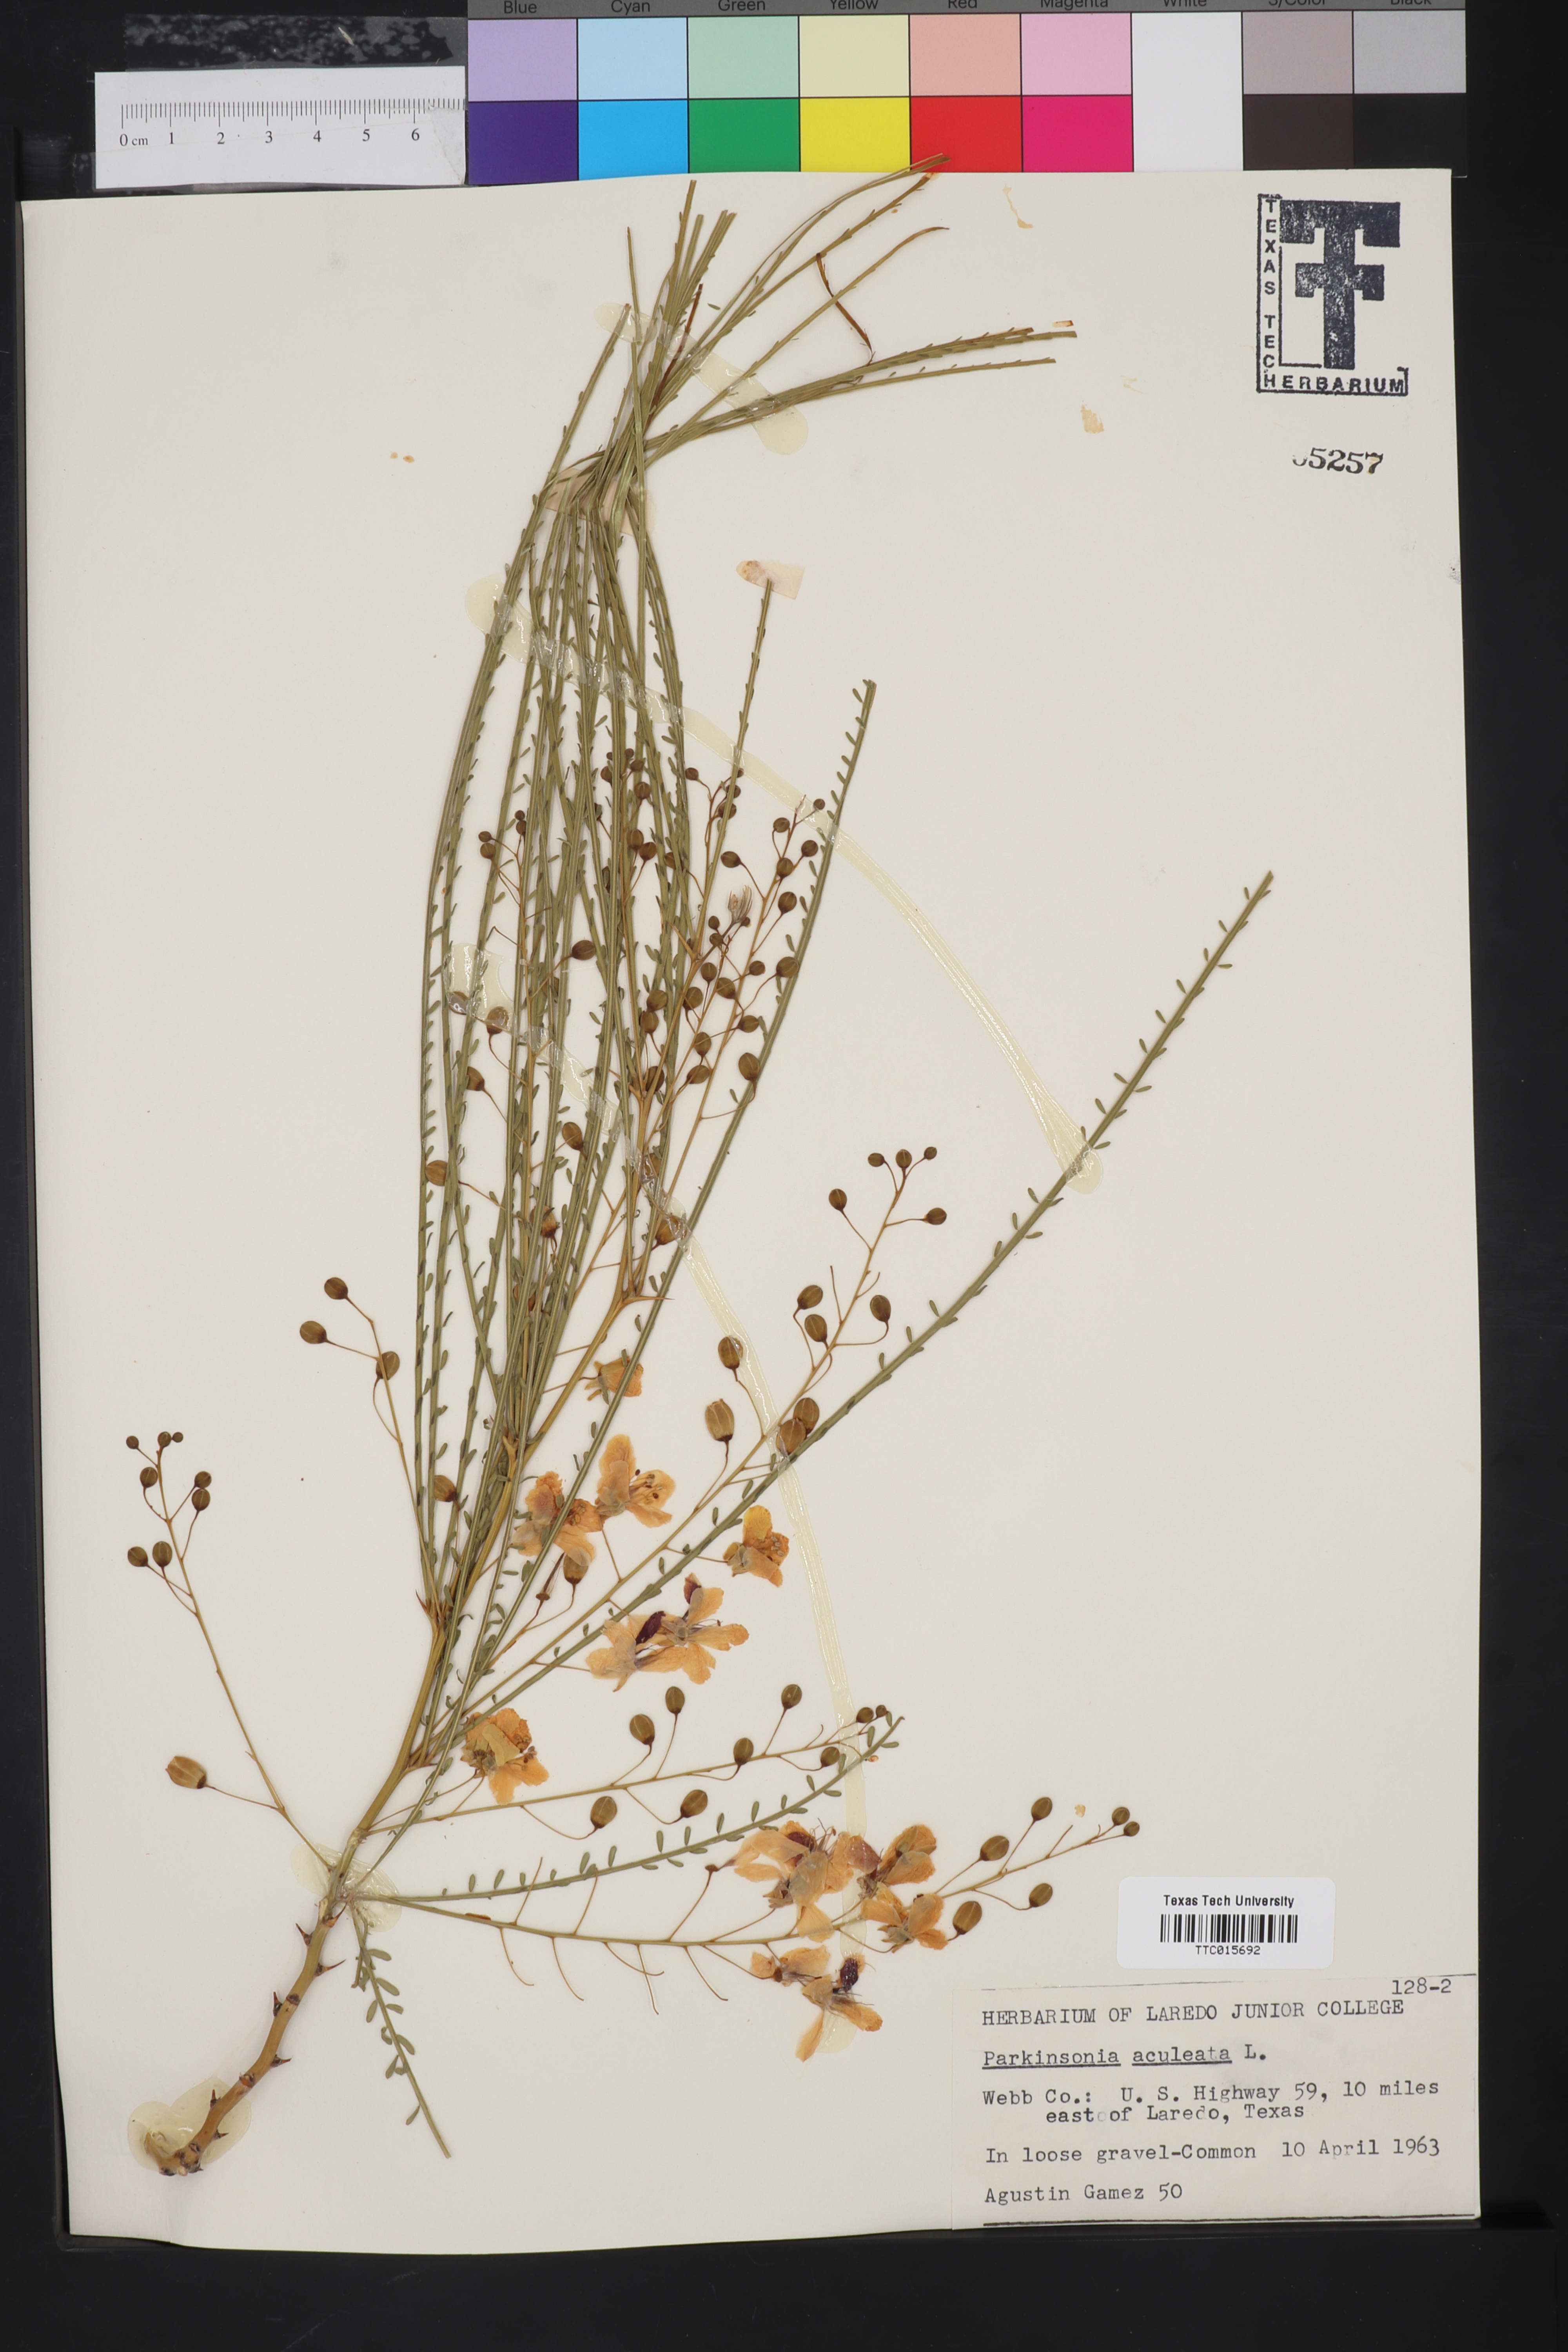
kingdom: Plantae
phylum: Tracheophyta
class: Magnoliopsida
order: Fabales
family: Fabaceae
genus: Parkinsonia
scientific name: Parkinsonia aculeata
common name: Jerusalem thorn
